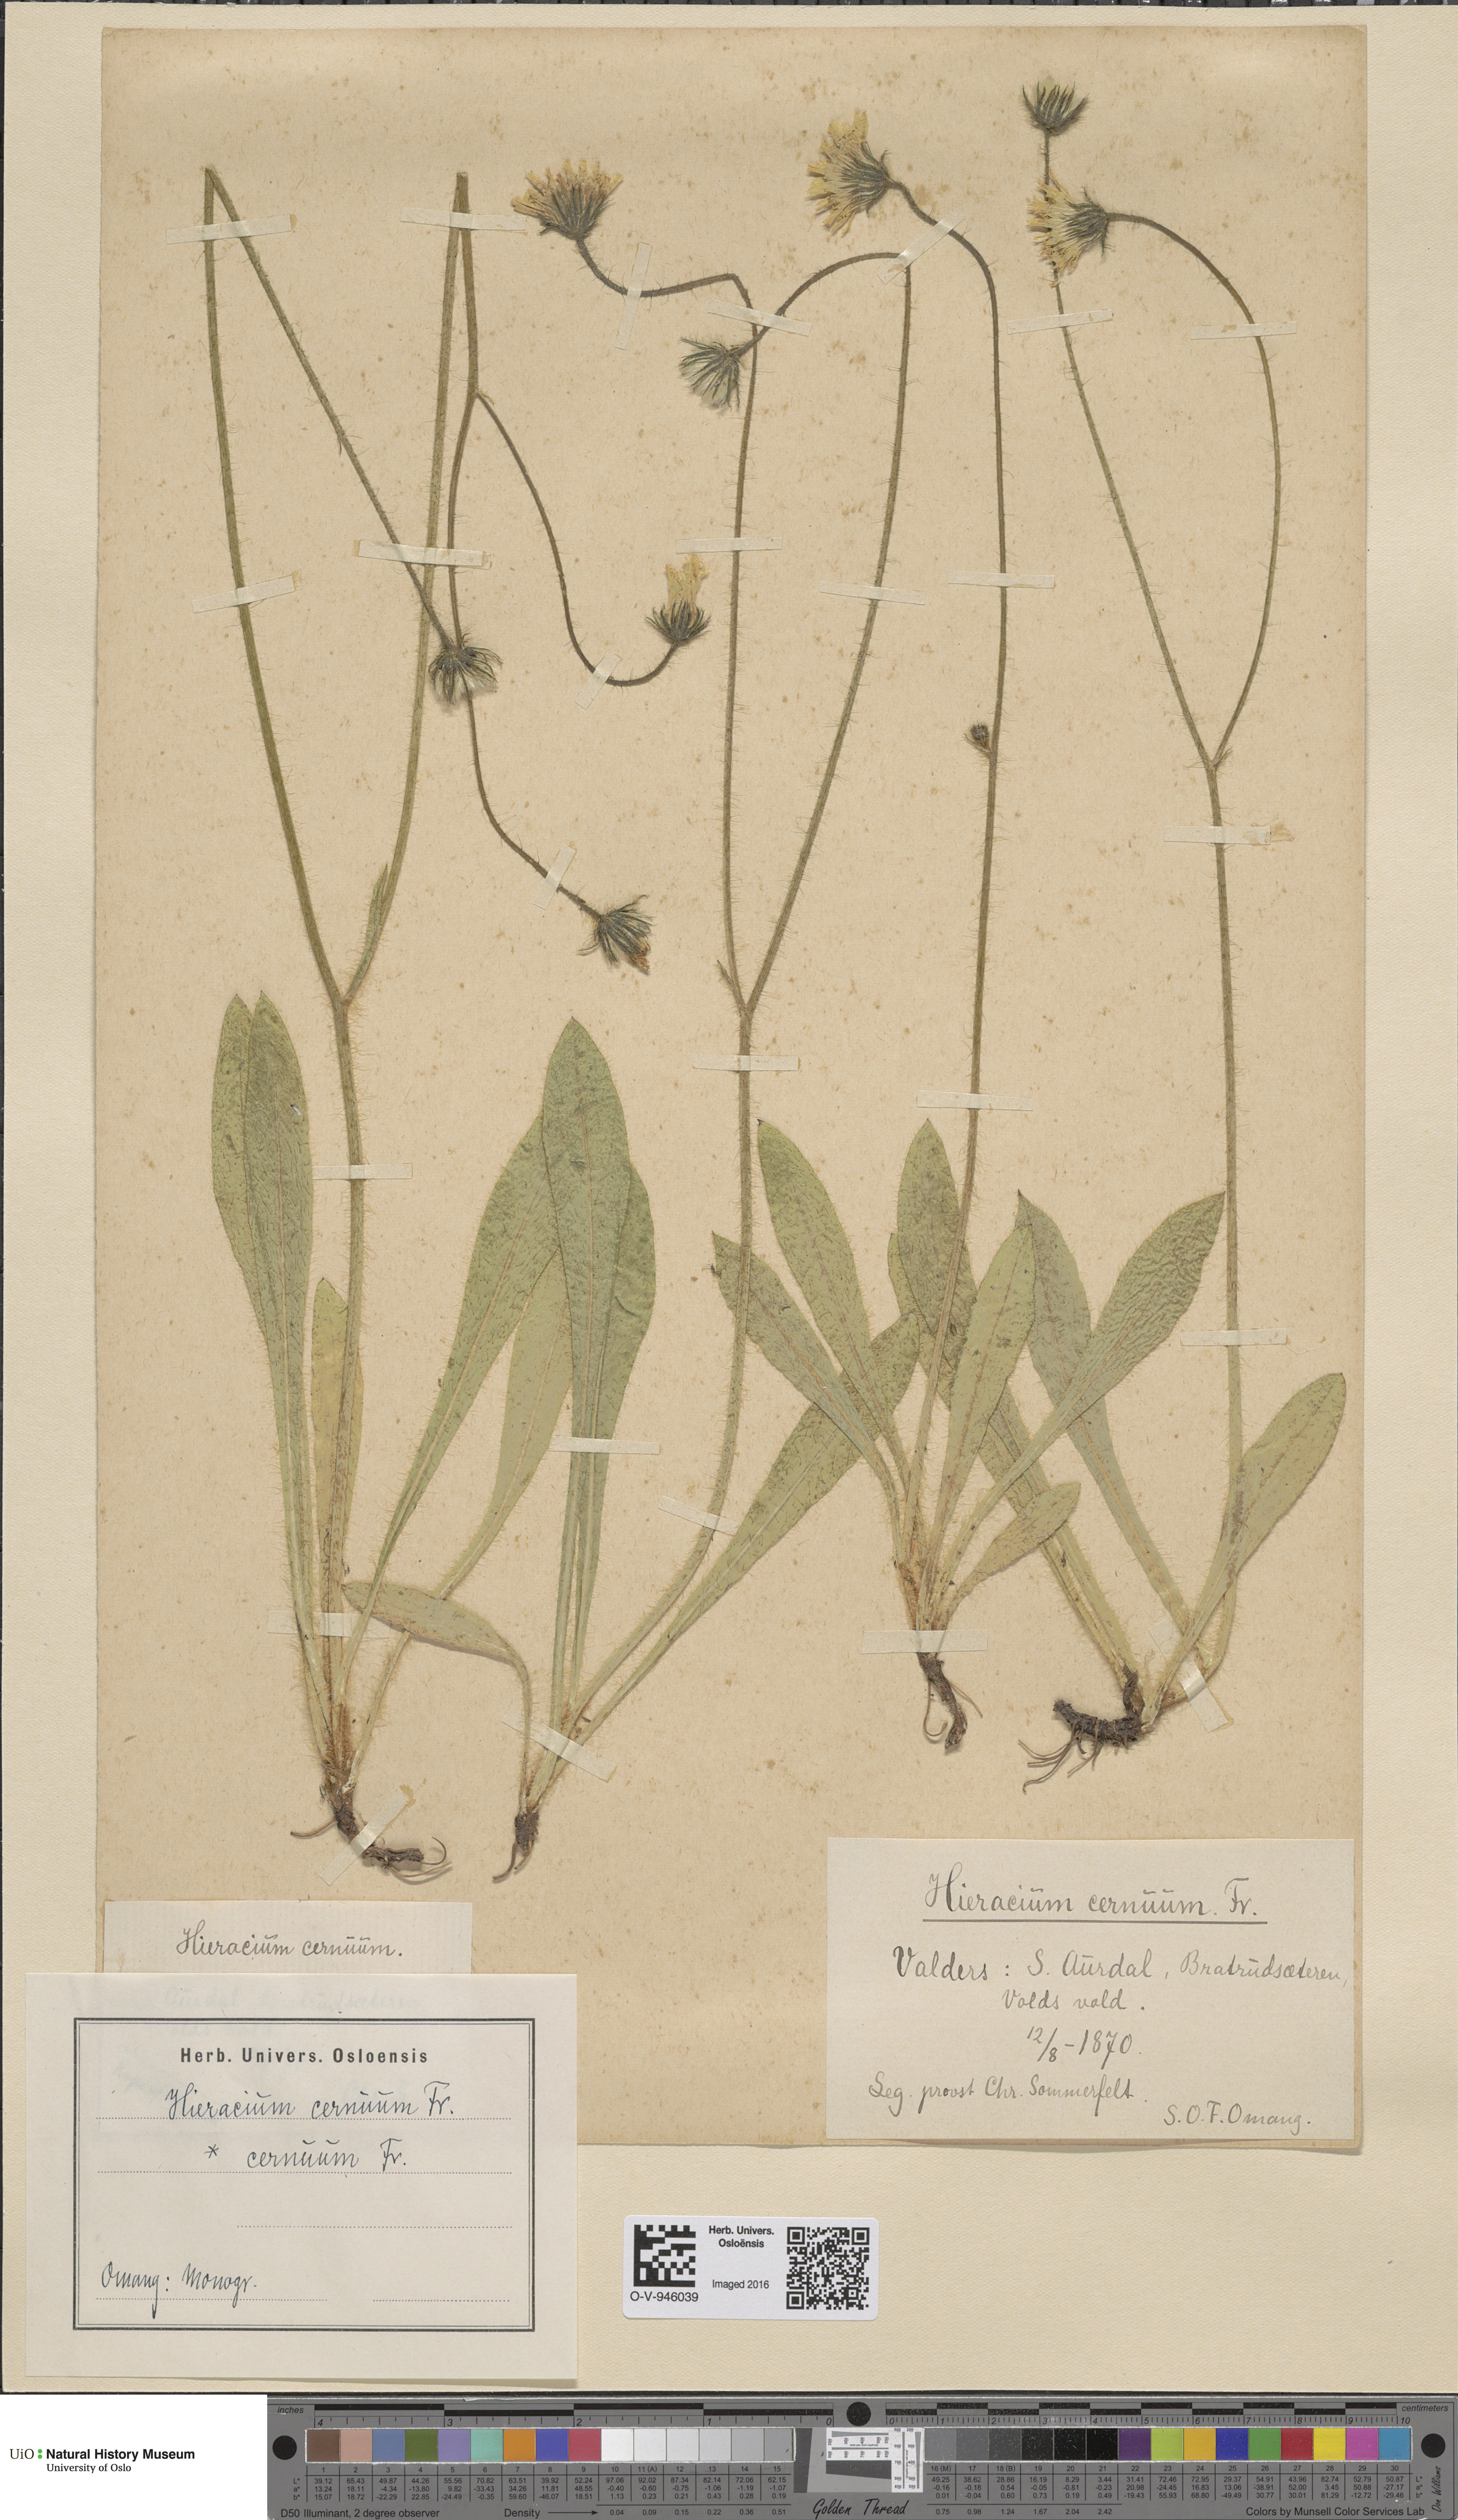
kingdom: Plantae
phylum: Tracheophyta
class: Magnoliopsida
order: Asterales
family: Asteraceae
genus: Pilosella
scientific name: Pilosella peteriana
